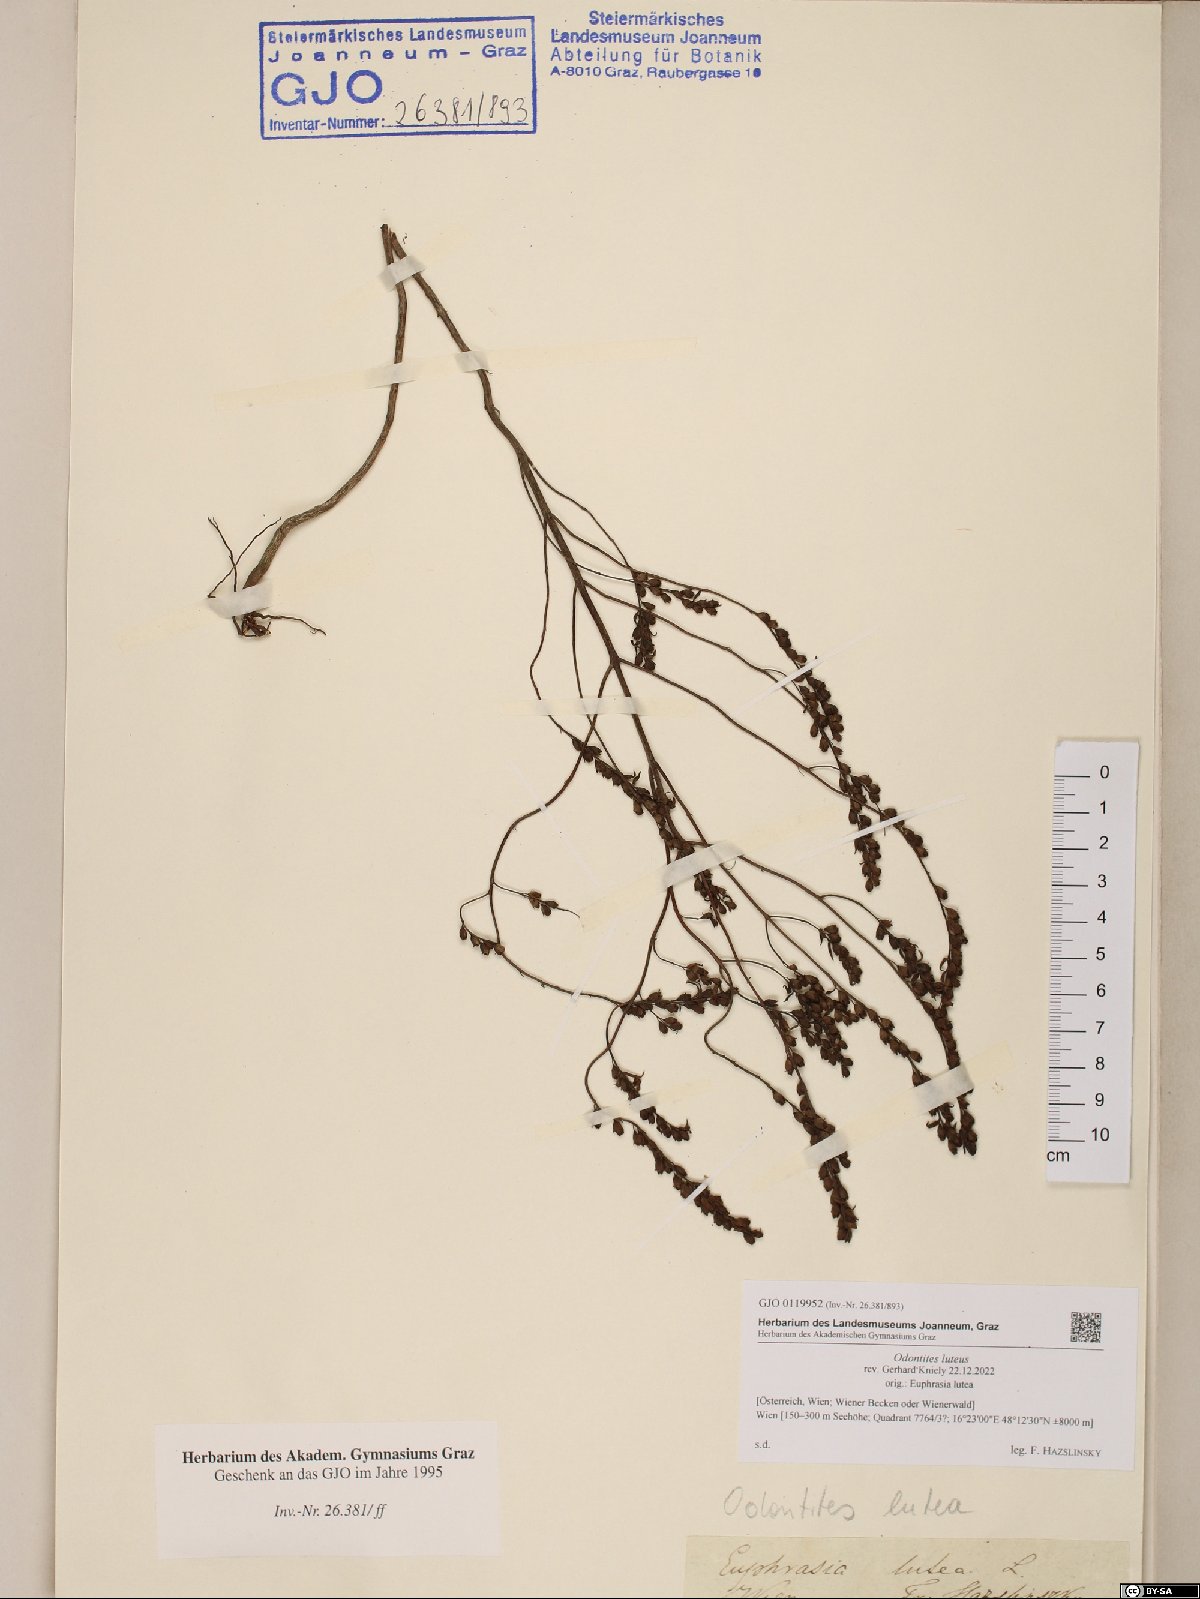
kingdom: Plantae
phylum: Tracheophyta
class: Magnoliopsida
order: Lamiales
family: Orobanchaceae
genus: Odontites
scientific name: Odontites luteus
